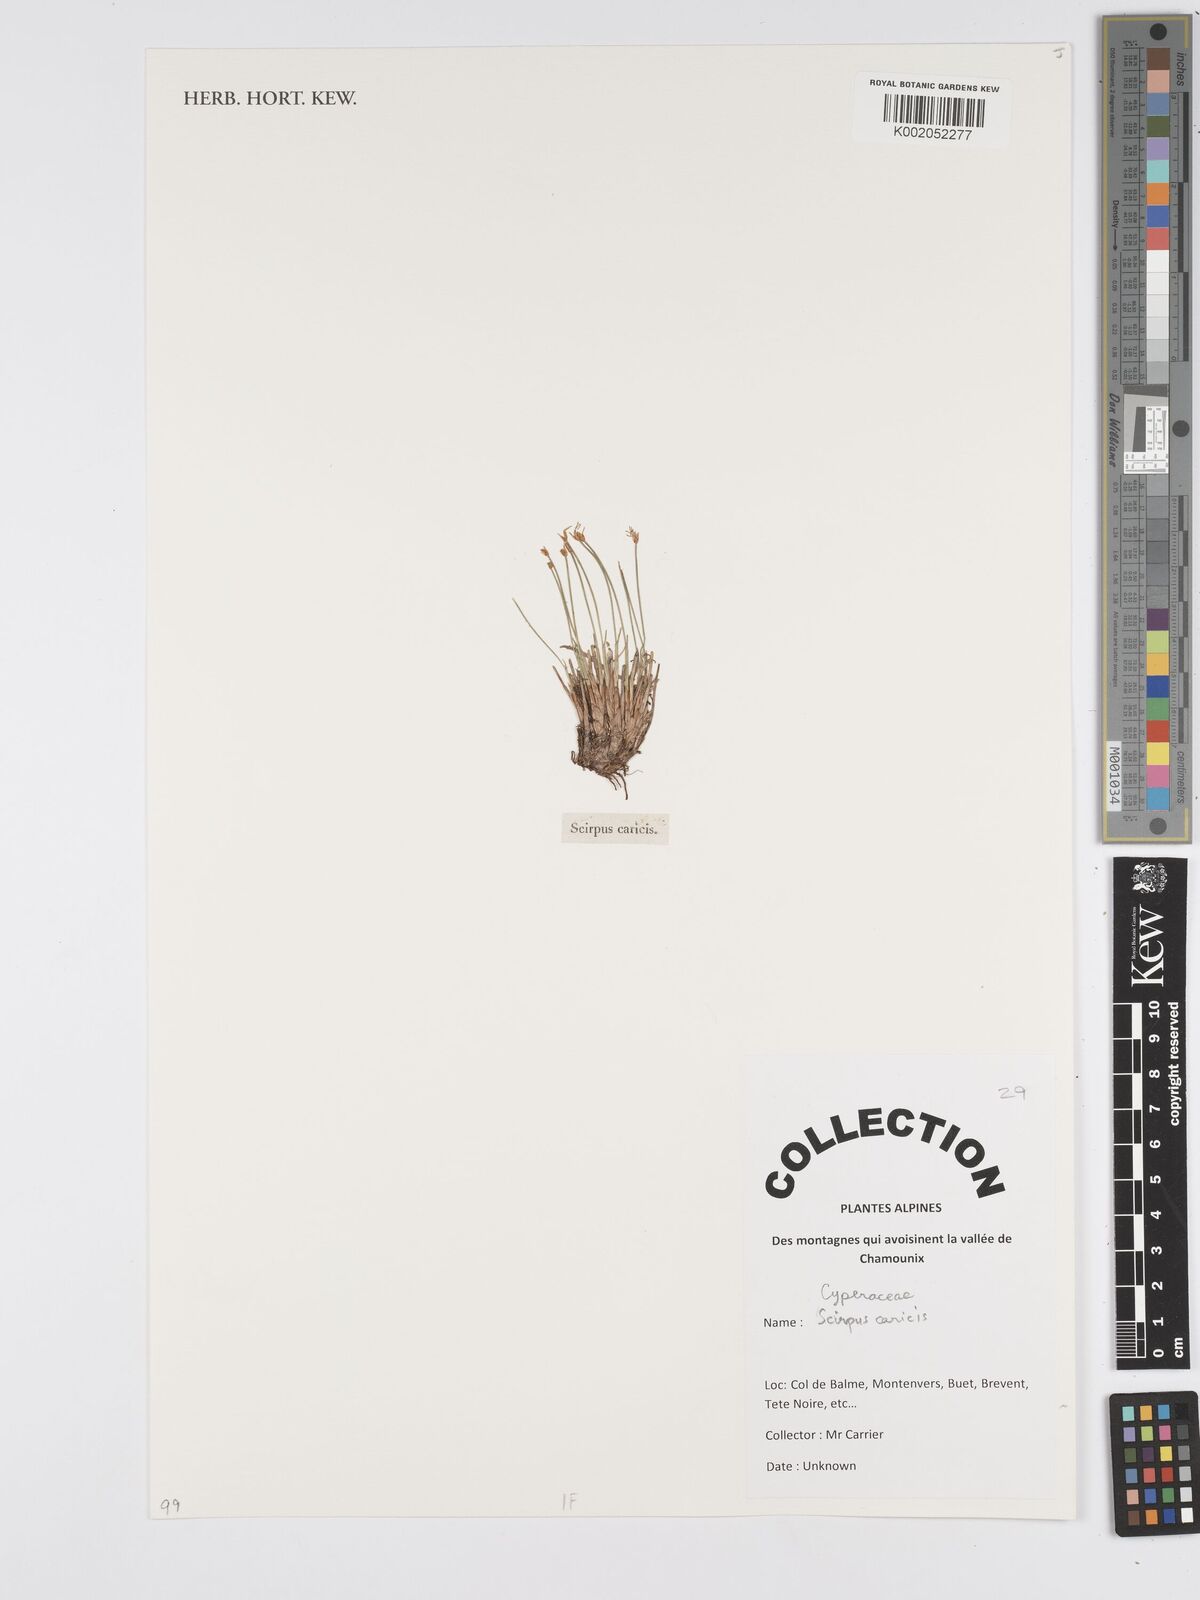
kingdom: Plantae
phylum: Tracheophyta
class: Liliopsida
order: Poales
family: Cyperaceae
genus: Blysmus
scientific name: Blysmus compressus
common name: Flat-sedge
